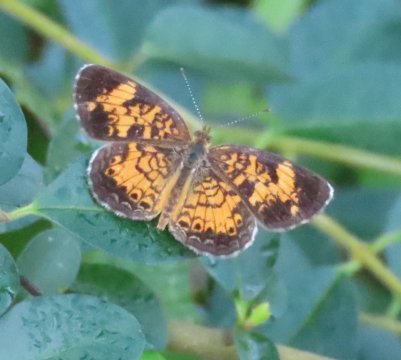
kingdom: Animalia
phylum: Arthropoda
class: Insecta
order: Lepidoptera
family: Nymphalidae
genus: Phyciodes
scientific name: Phyciodes tharos
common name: Pearl Crescent
